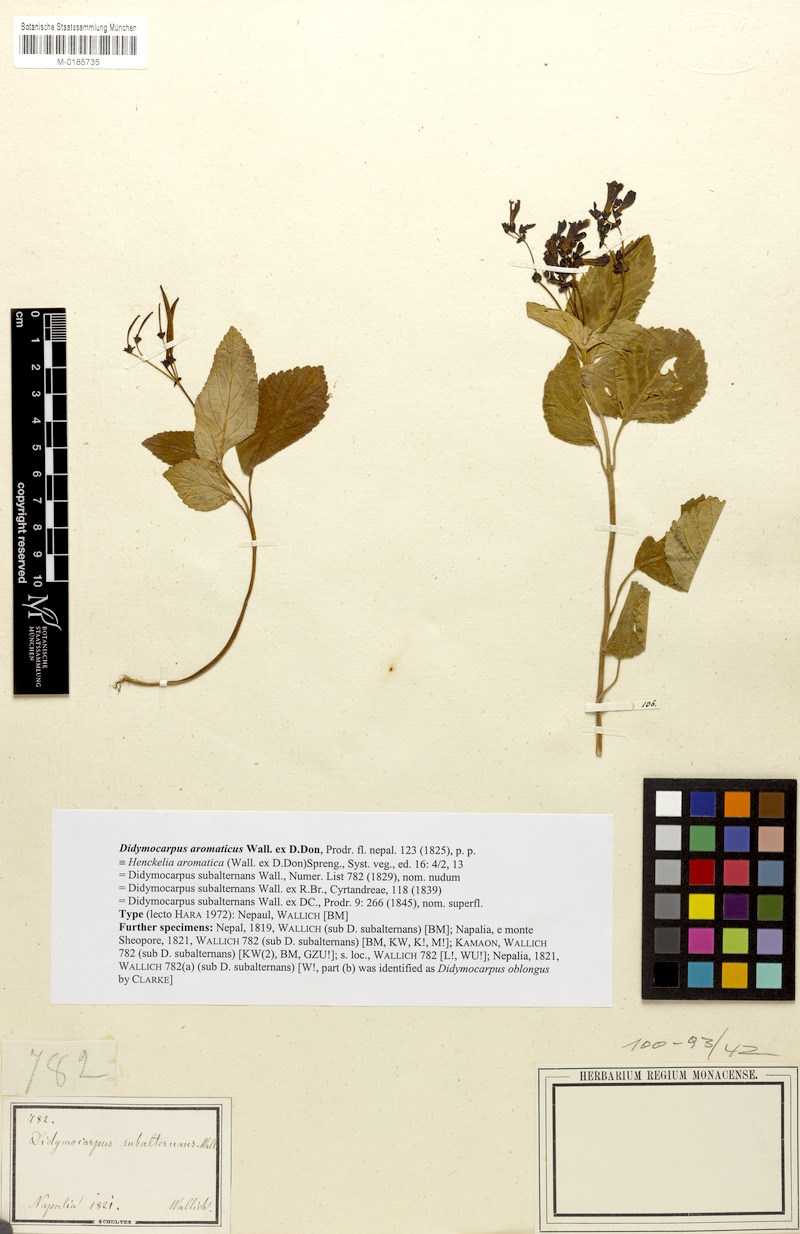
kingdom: Plantae
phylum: Tracheophyta
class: Magnoliopsida
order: Lamiales
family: Gesneriaceae
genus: Didymocarpus
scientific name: Didymocarpus aromaticus
